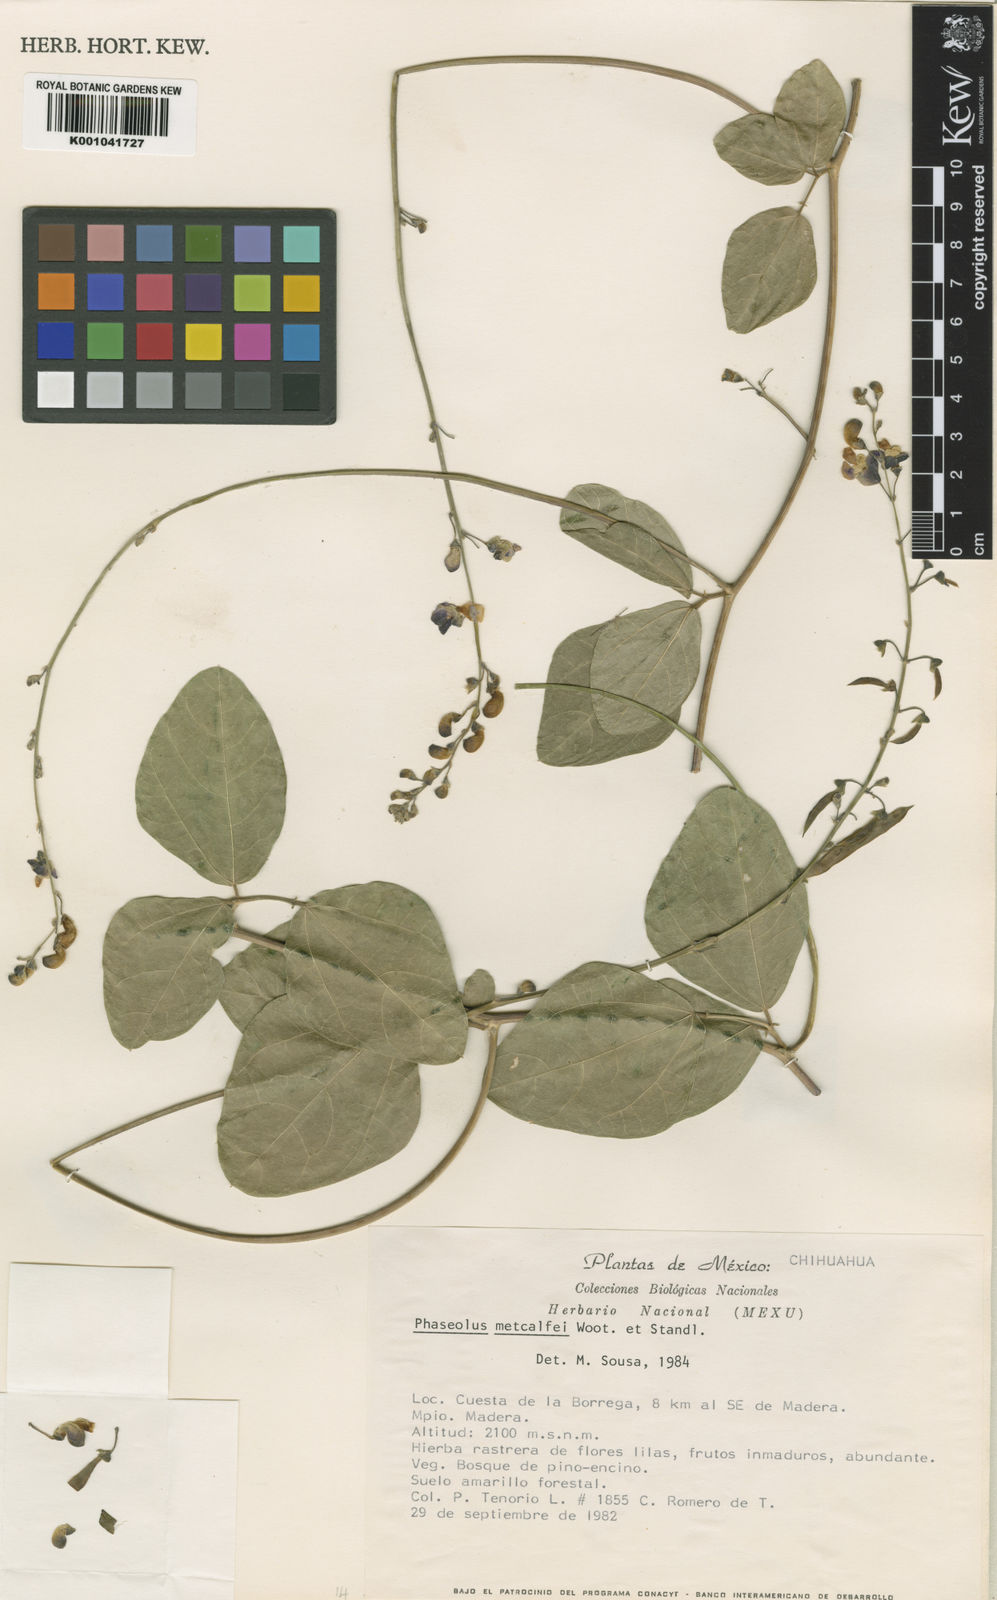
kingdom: Plantae
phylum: Tracheophyta
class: Magnoliopsida
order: Fabales
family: Fabaceae
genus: Phaseolus
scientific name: Phaseolus maculatus
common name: Metcalfe bean
